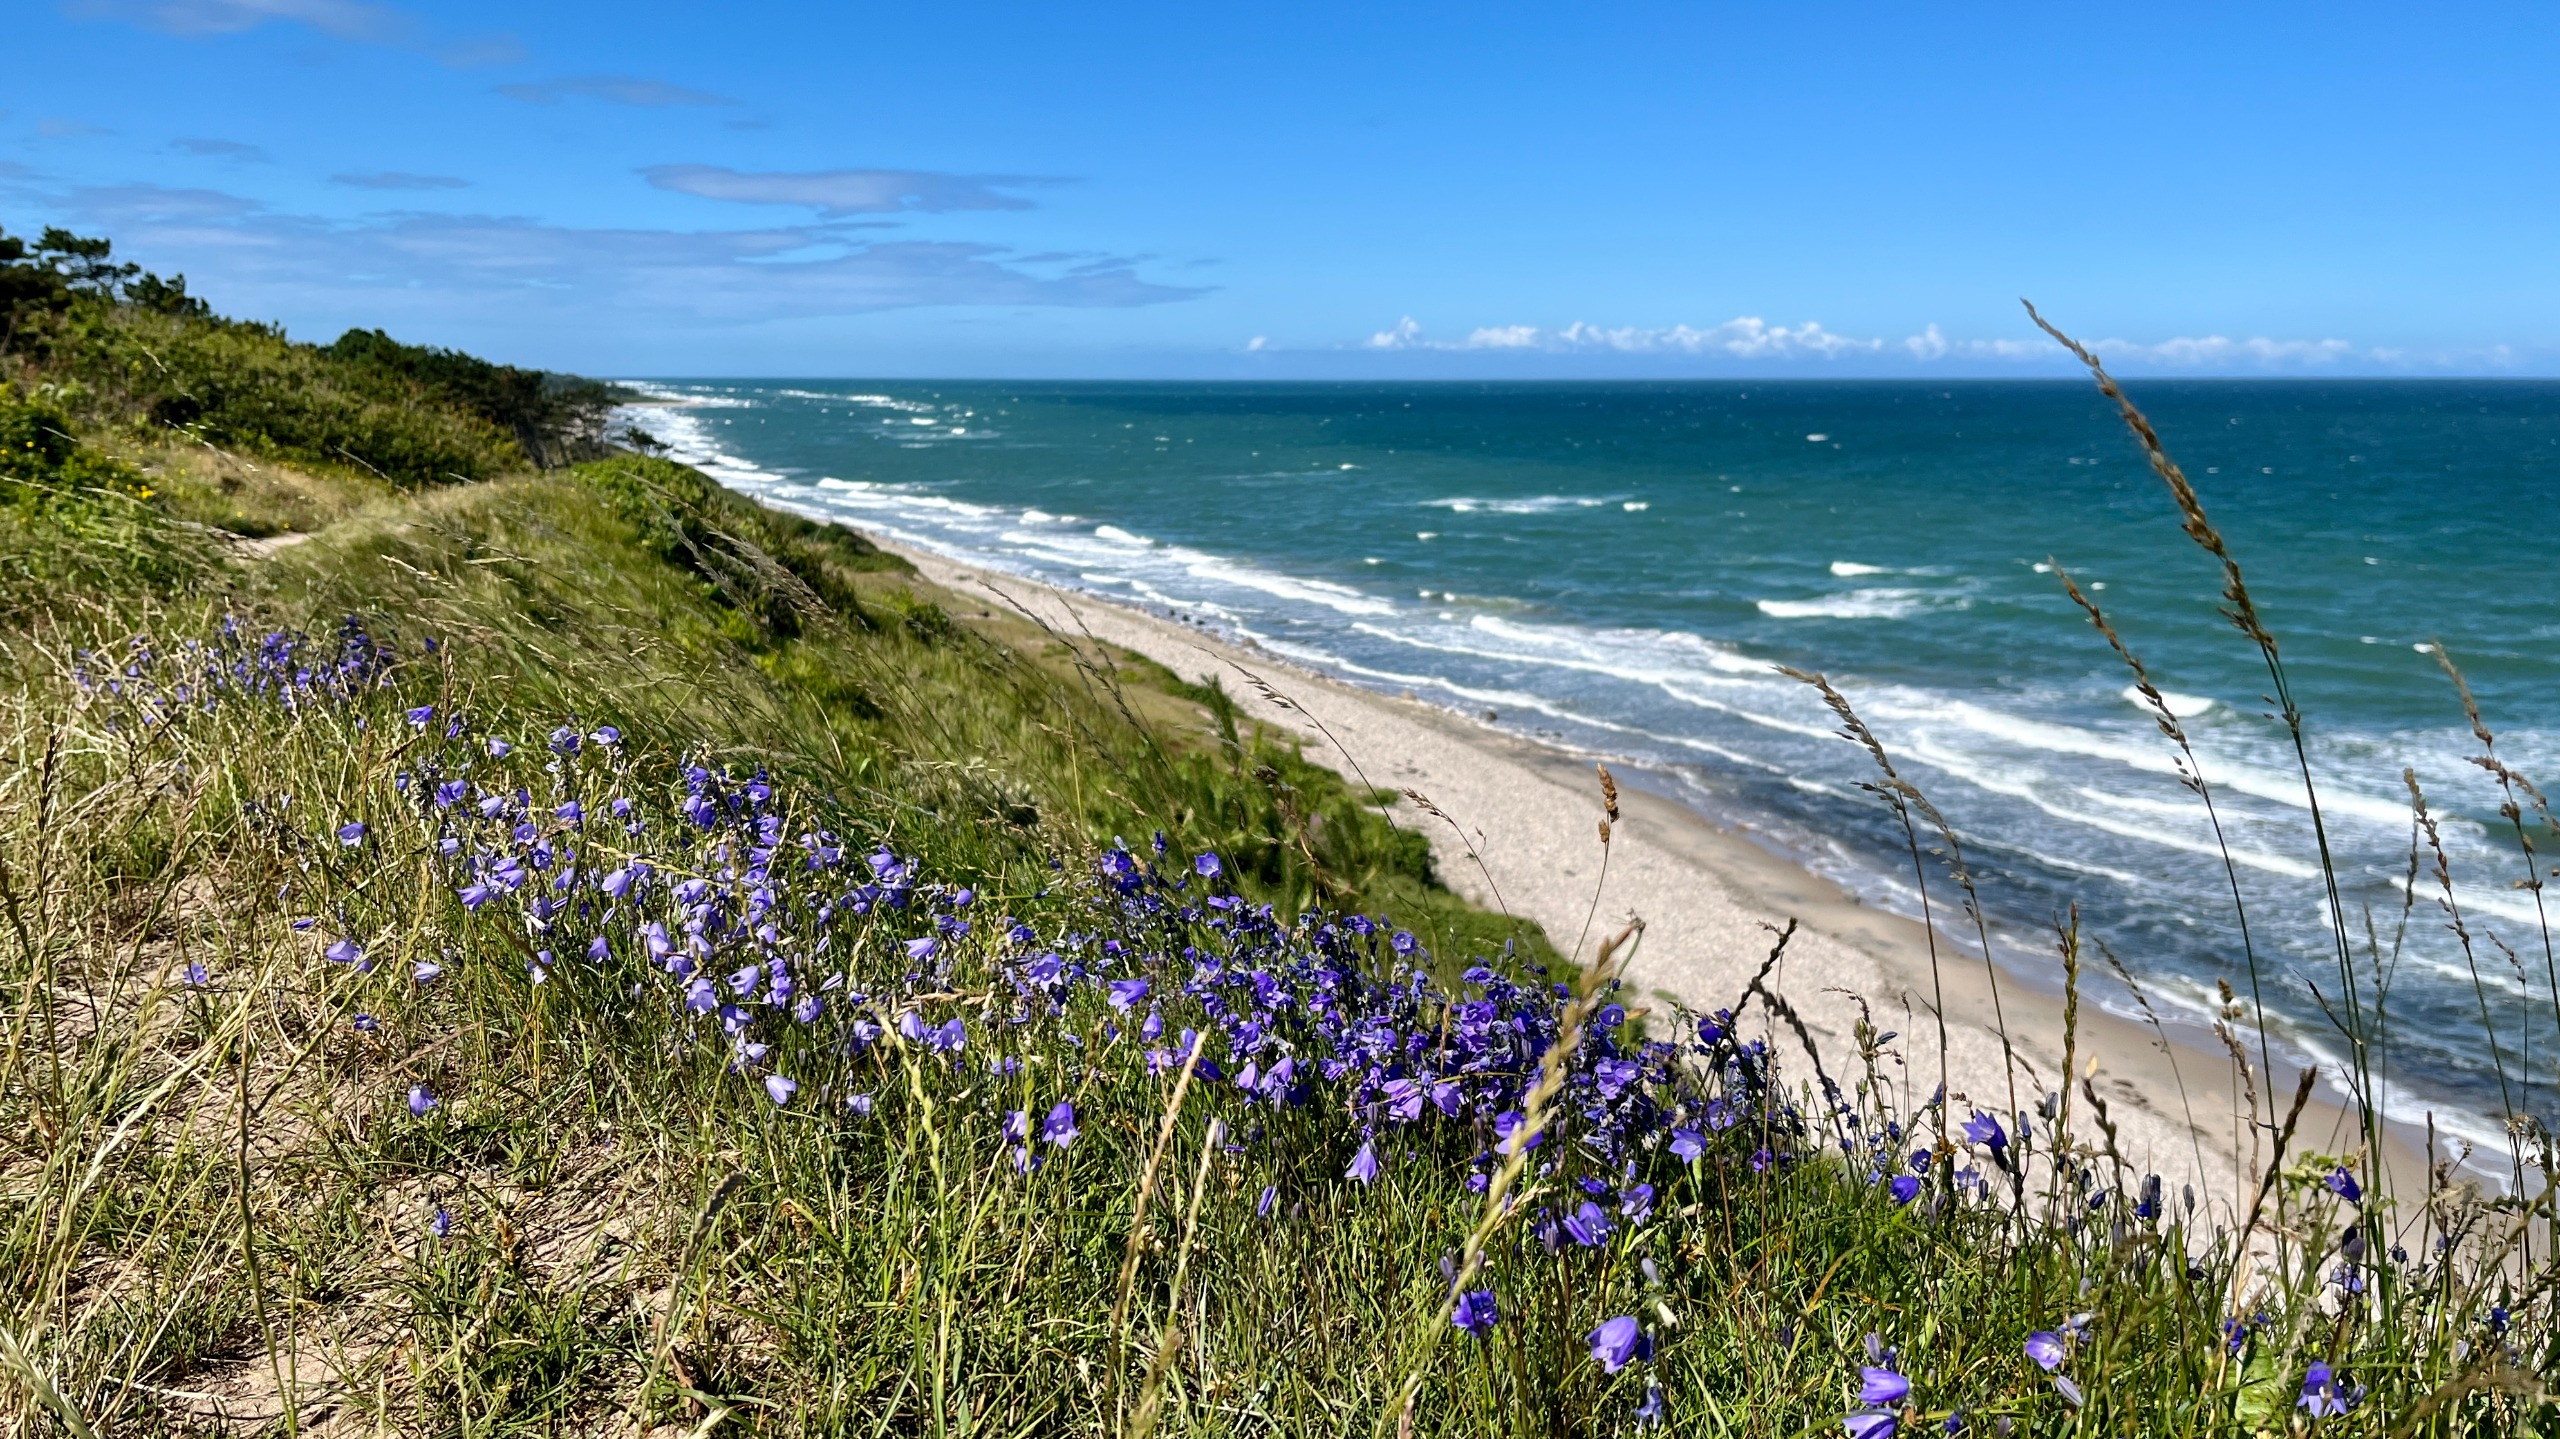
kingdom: Plantae
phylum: Tracheophyta
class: Magnoliopsida
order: Asterales
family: Campanulaceae
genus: Campanula
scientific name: Campanula rotundifolia
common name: Liden klokke
